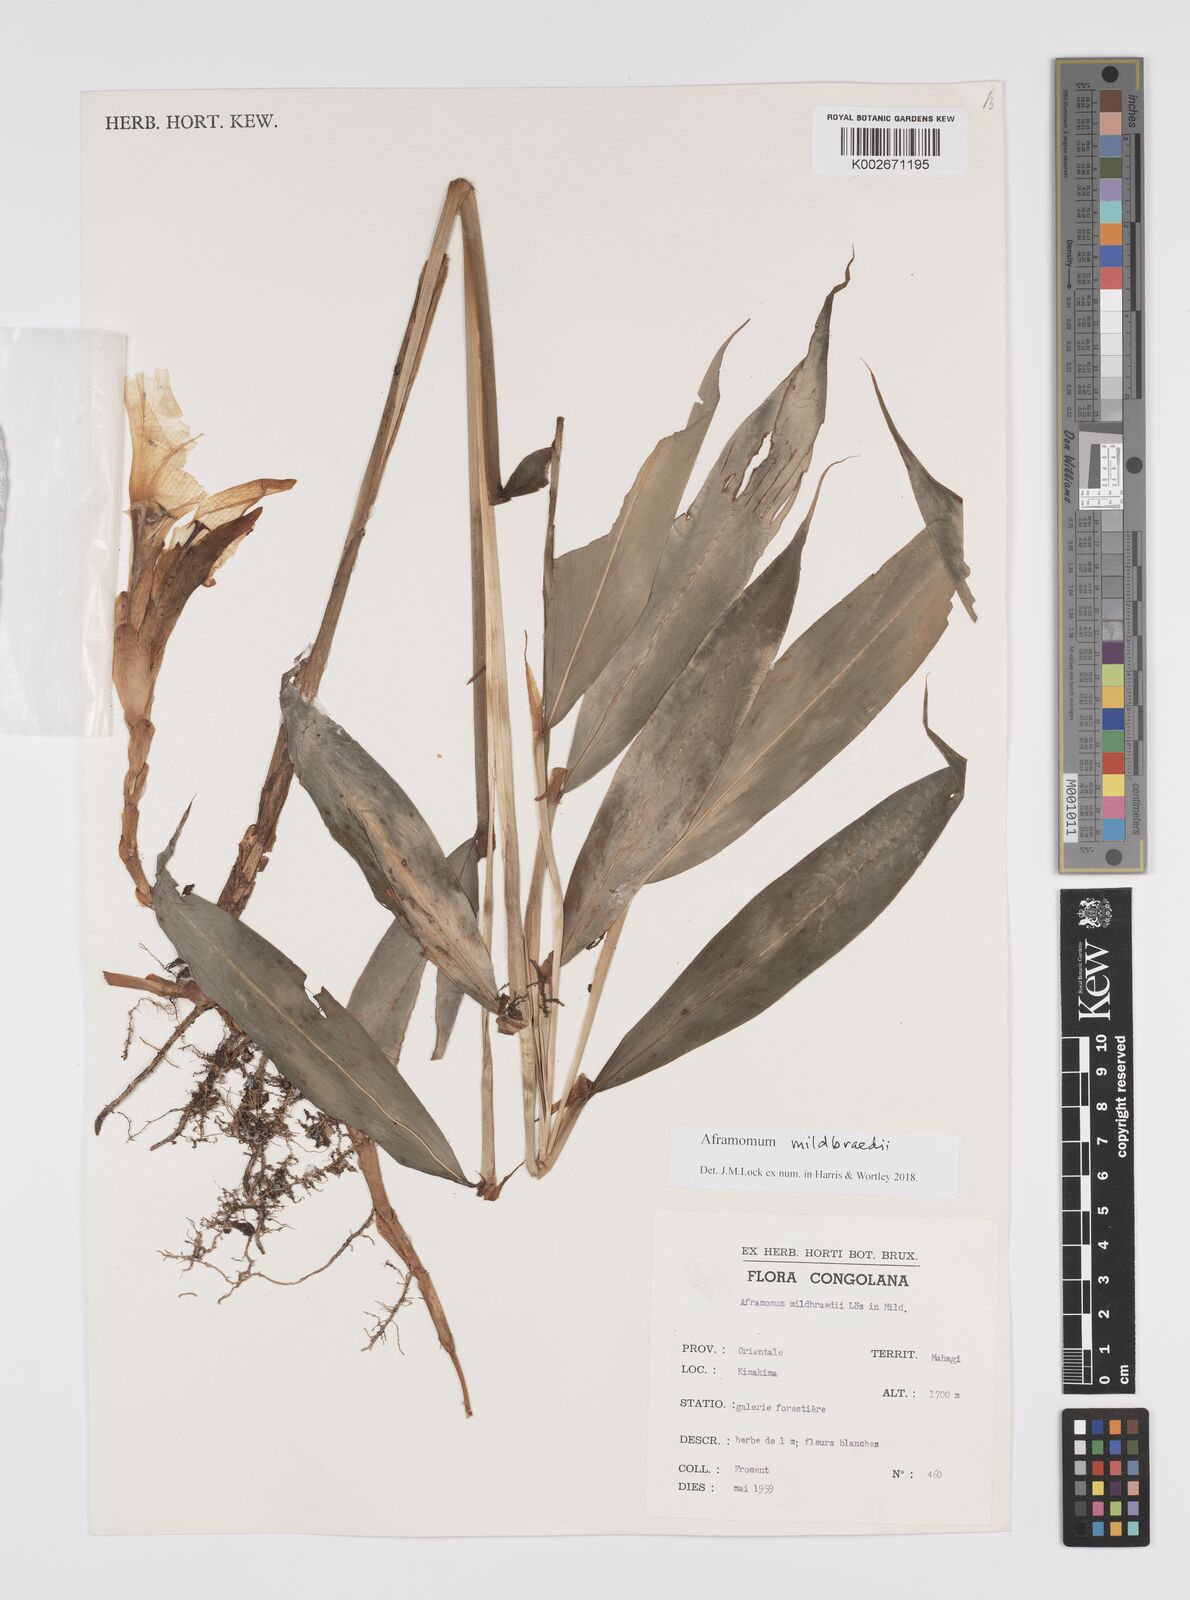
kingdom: Plantae
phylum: Tracheophyta
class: Liliopsida
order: Zingiberales
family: Zingiberaceae
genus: Aframomum
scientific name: Aframomum mildbraedii
